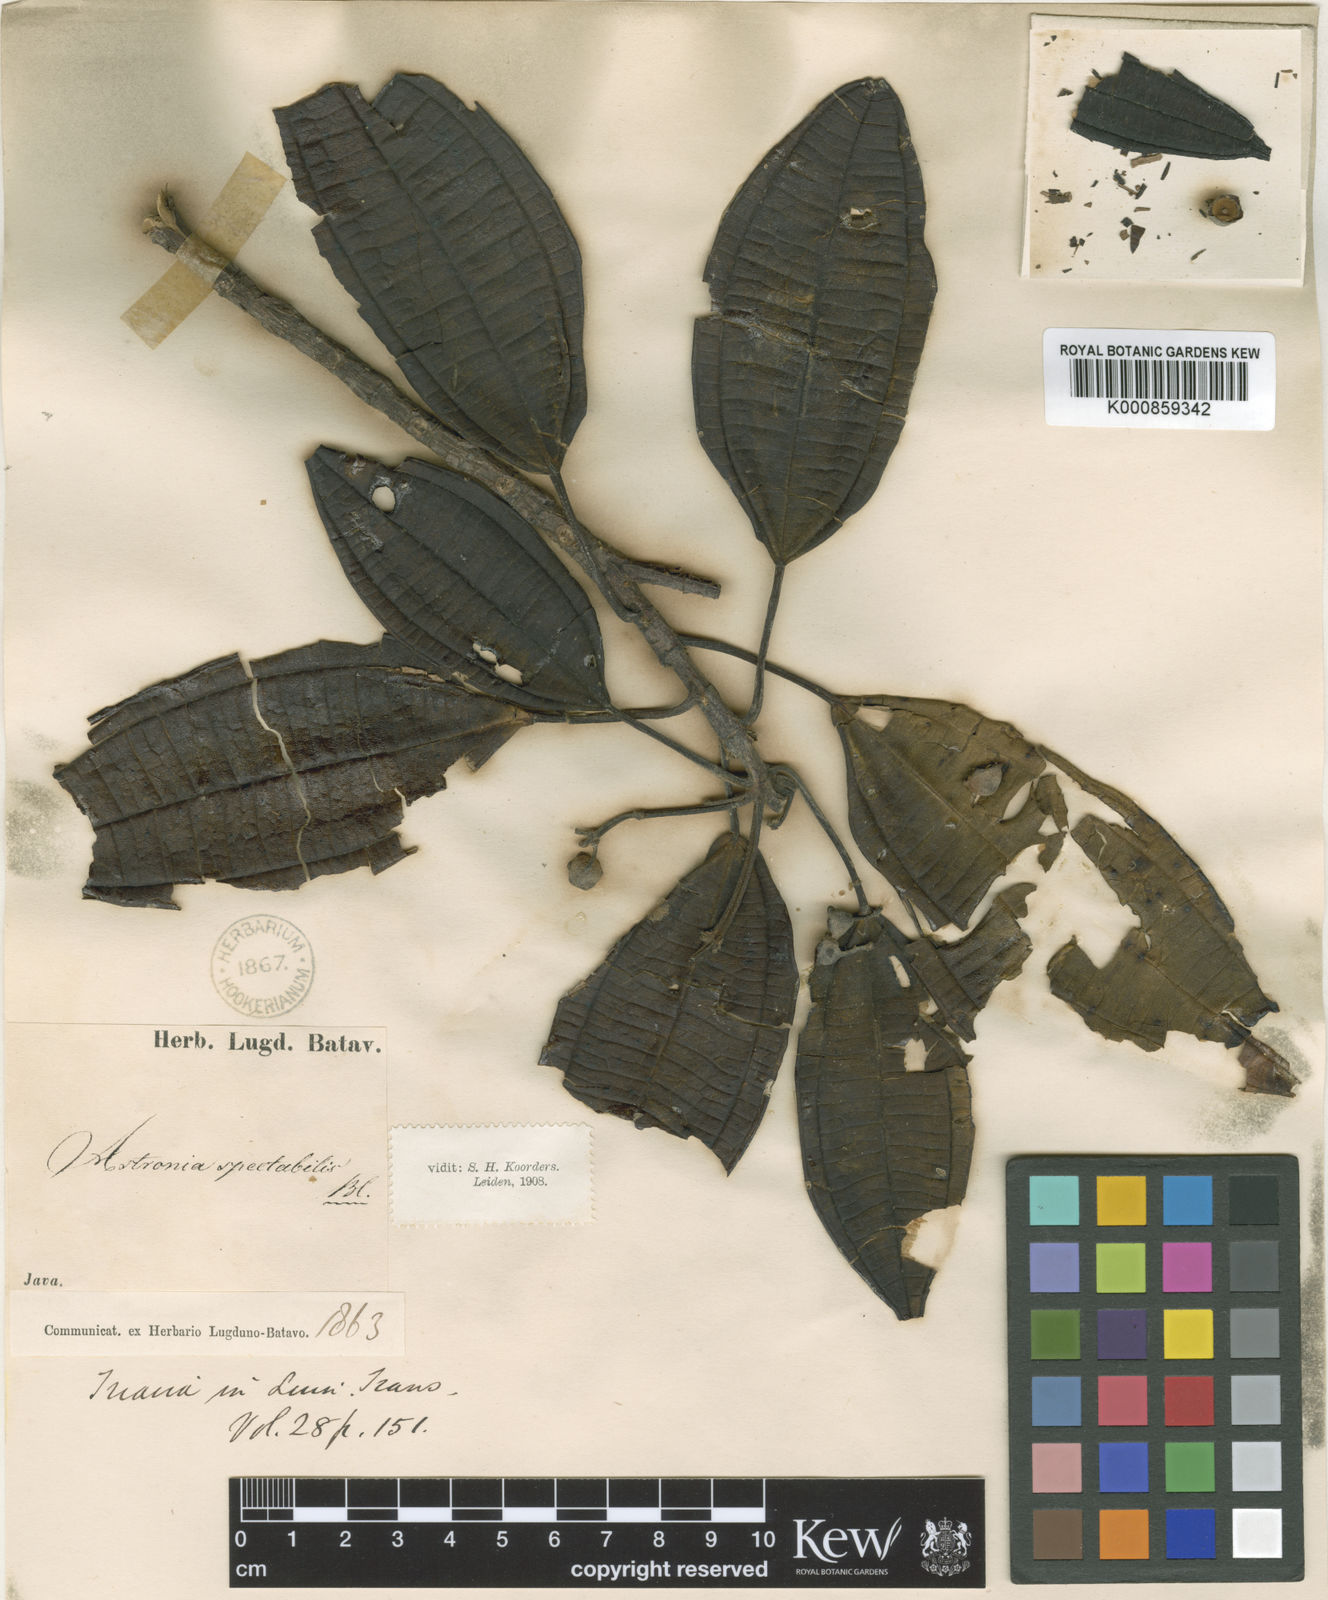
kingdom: Plantae
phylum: Tracheophyta
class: Magnoliopsida
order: Myrtales
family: Melastomataceae
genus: Astronia
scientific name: Astronia spectabilis
